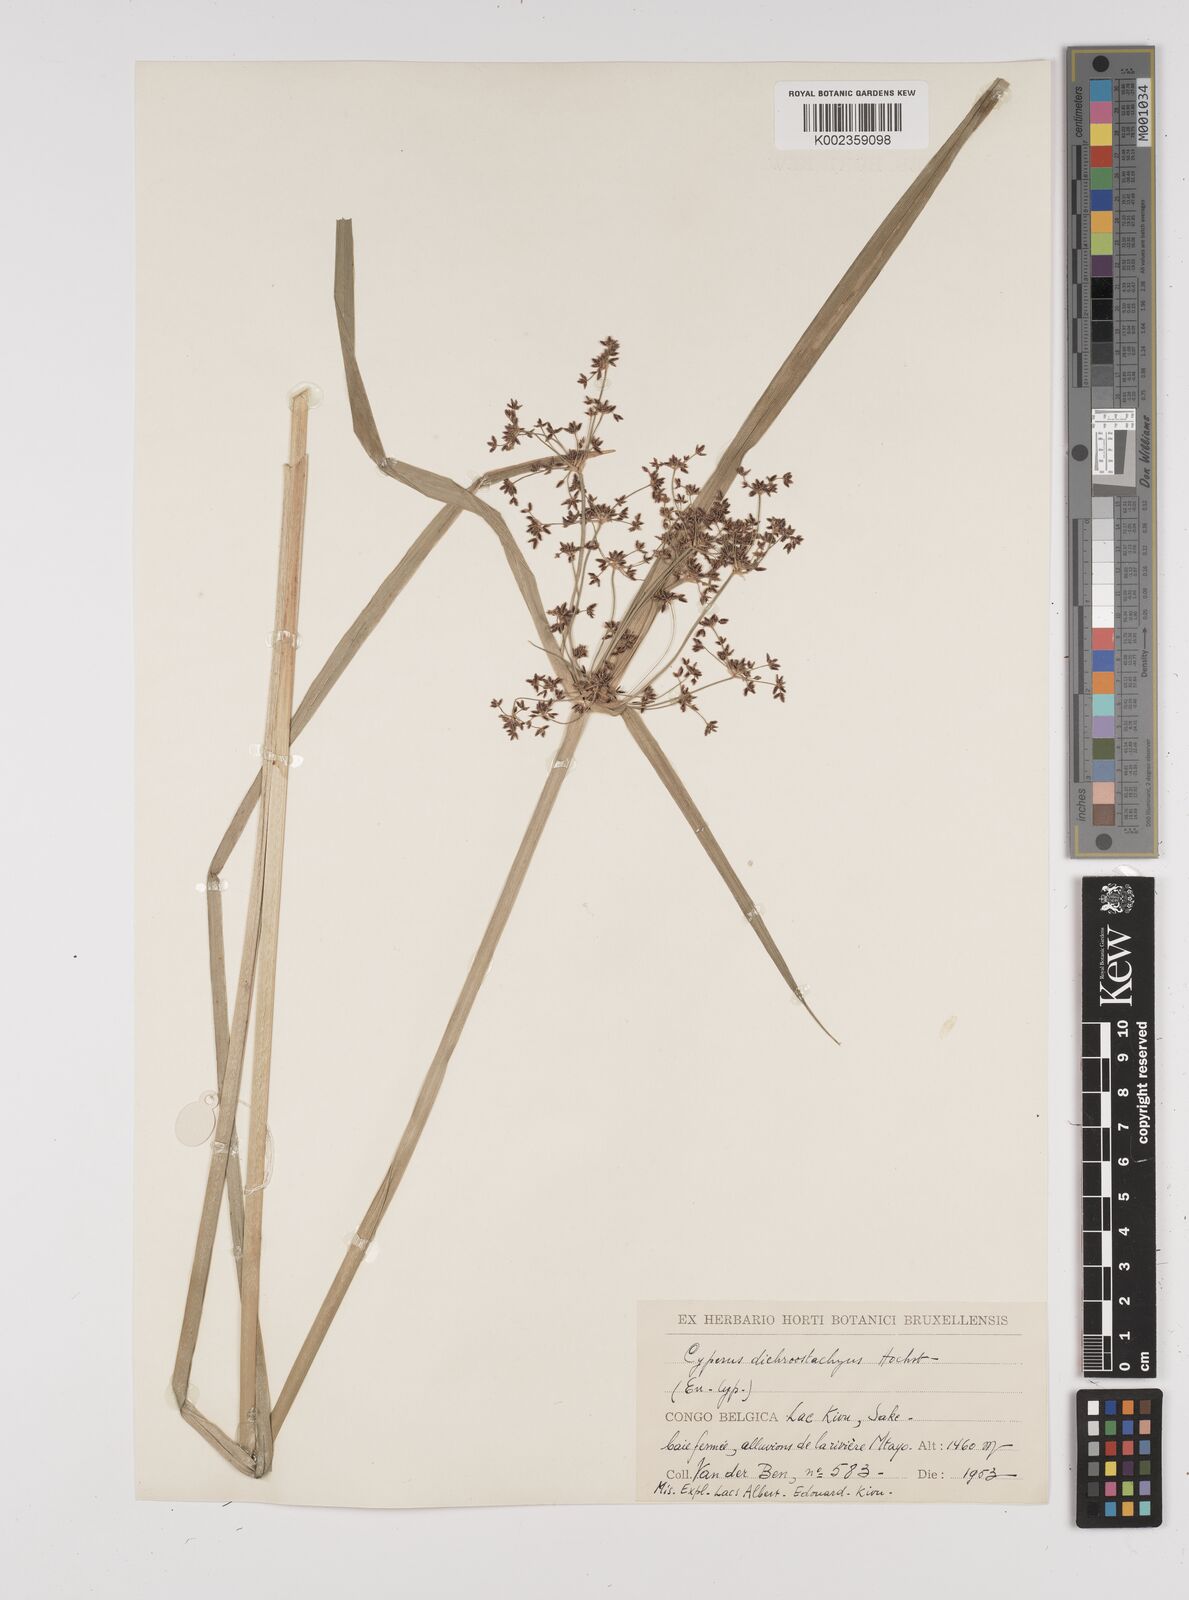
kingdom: Plantae
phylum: Tracheophyta
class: Liliopsida
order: Poales
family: Cyperaceae
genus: Cyperus
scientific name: Cyperus dichrostachyus
